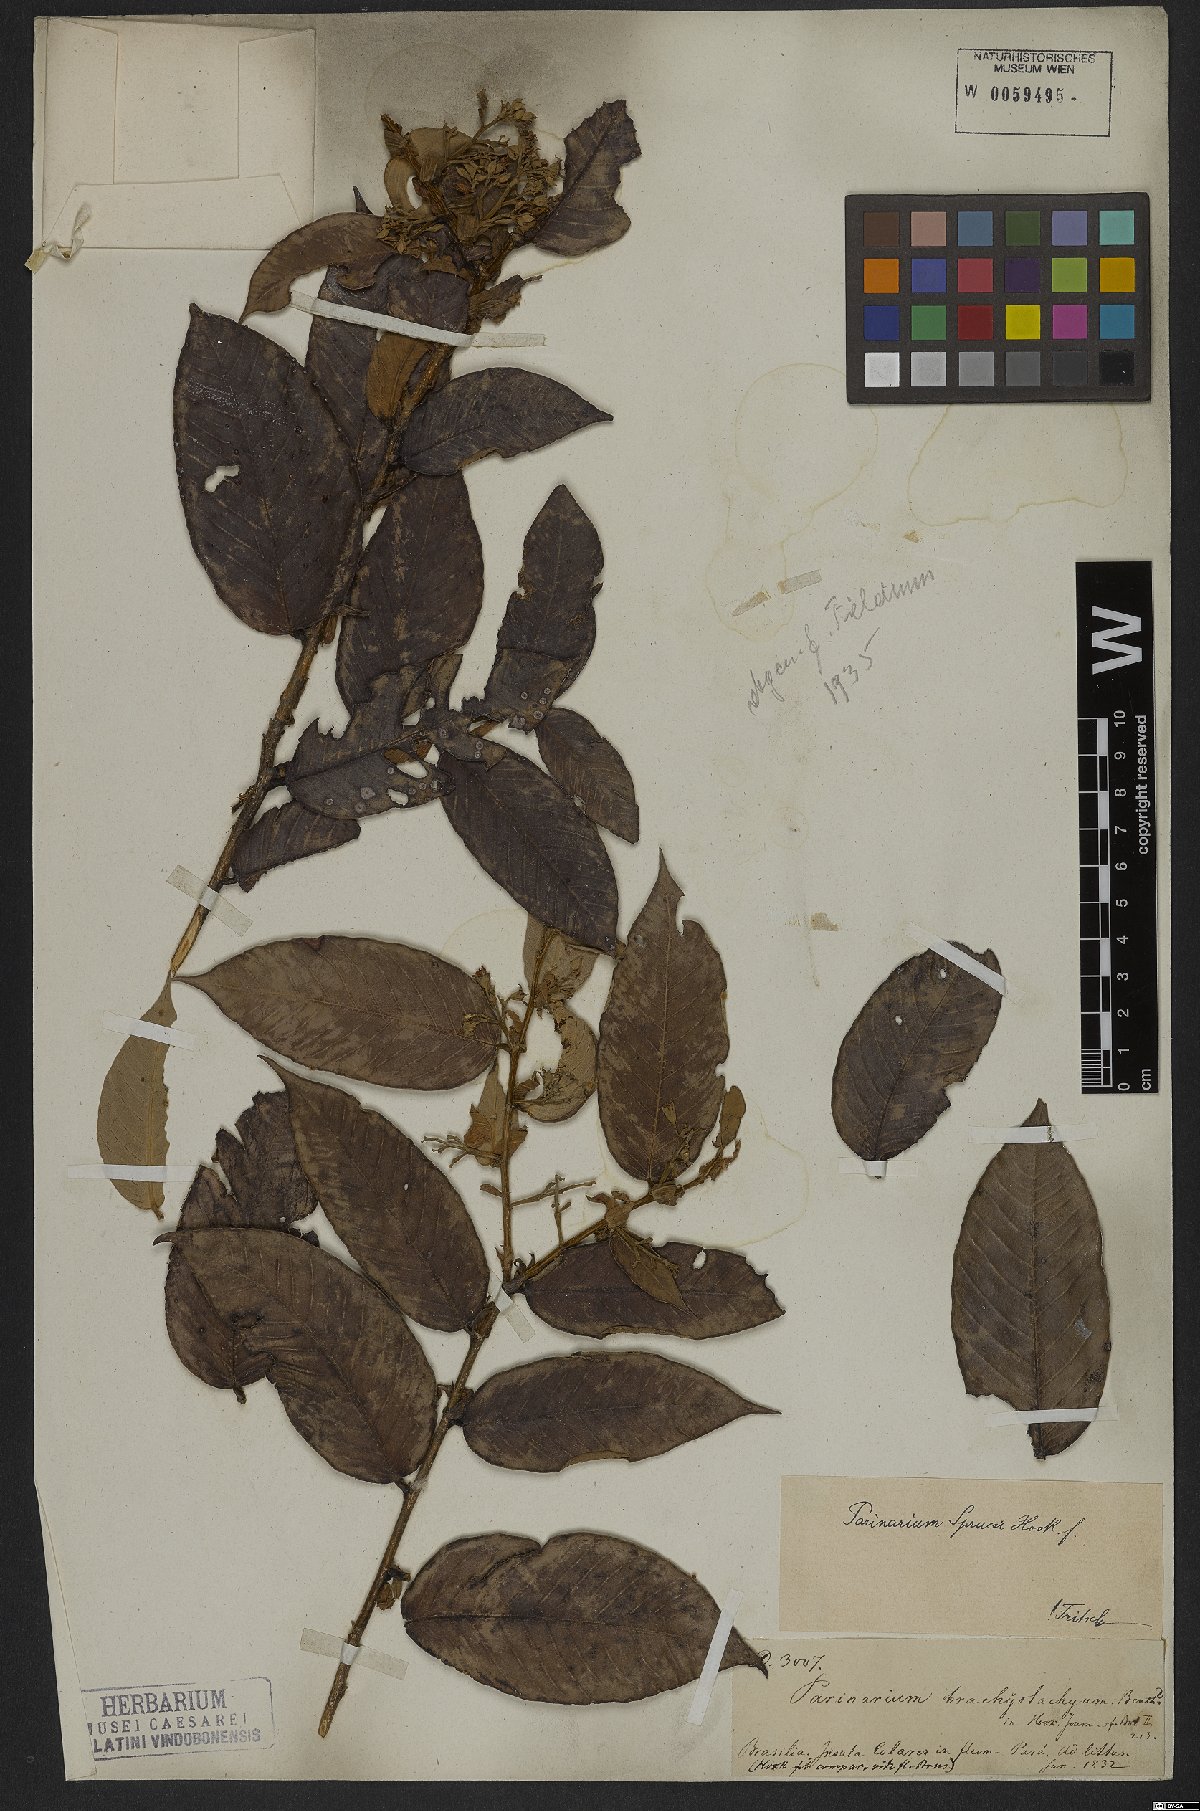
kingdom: Plantae
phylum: Tracheophyta
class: Magnoliopsida
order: Malpighiales
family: Chrysobalanaceae
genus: Parinari
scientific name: Parinari sprucei
